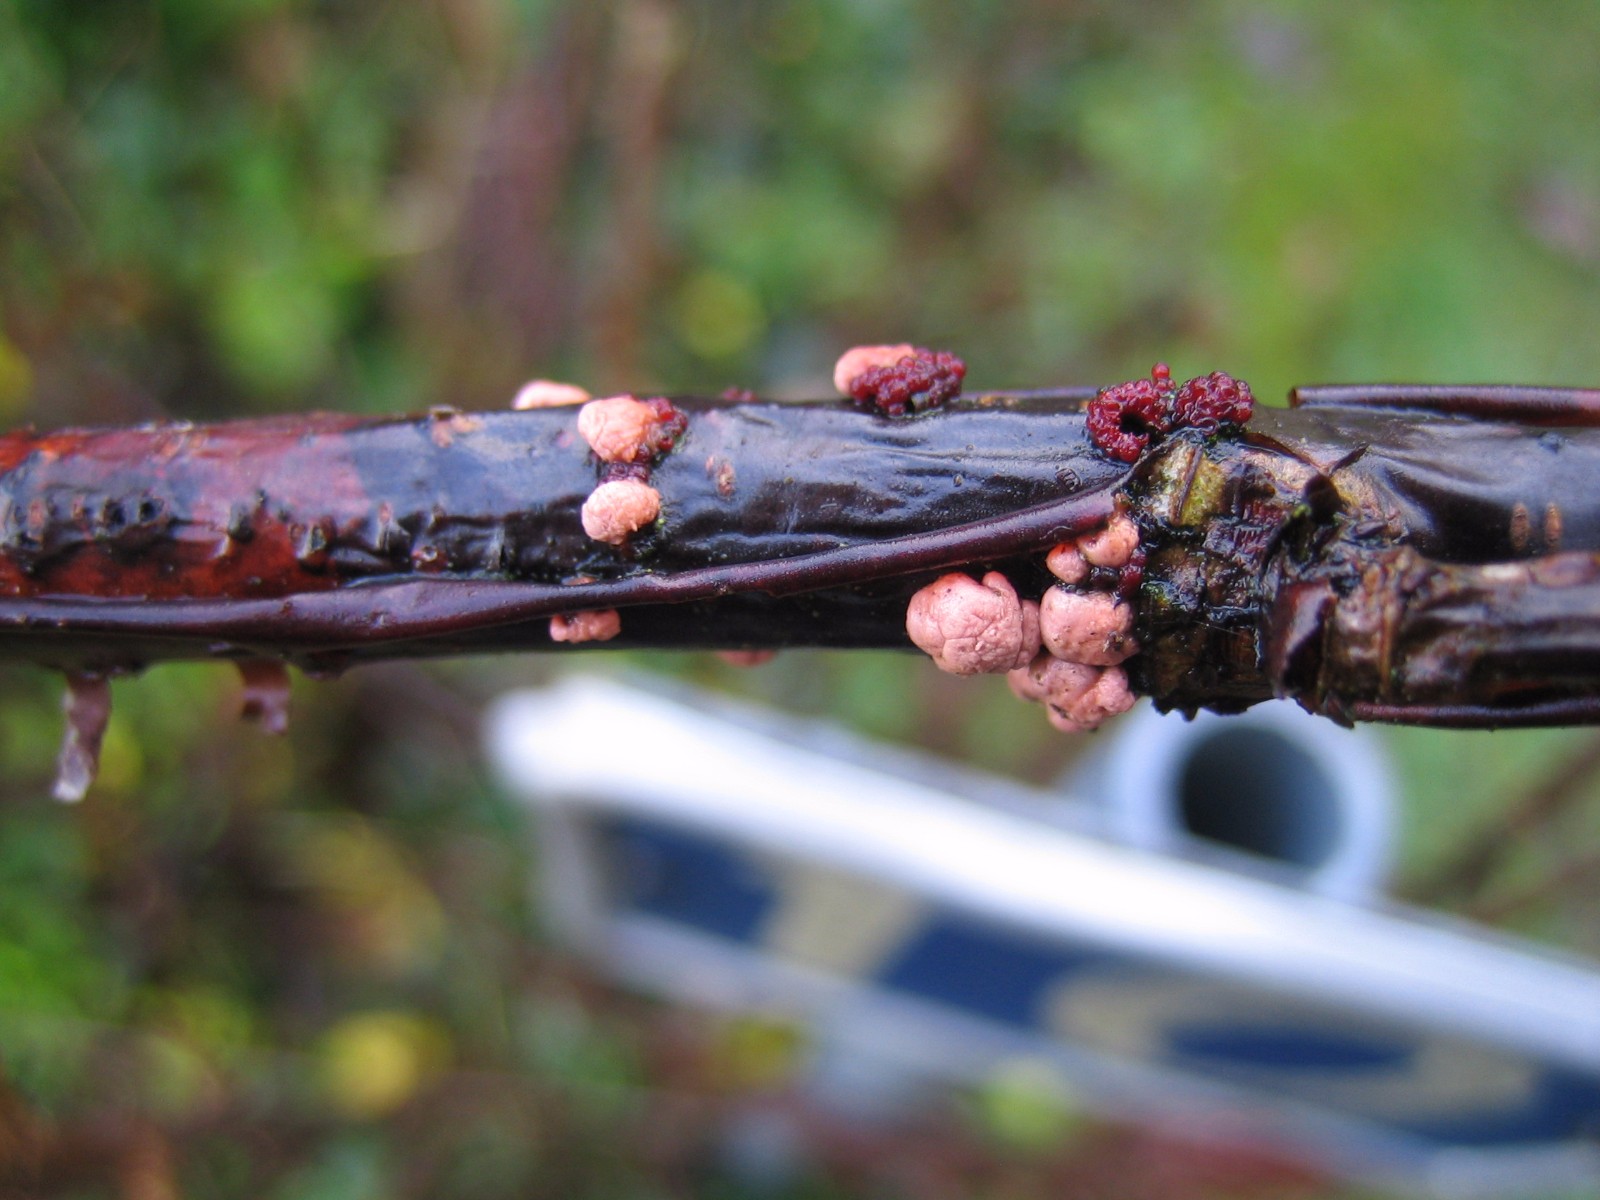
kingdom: Fungi
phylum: Ascomycota
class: Sordariomycetes
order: Hypocreales
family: Nectriaceae
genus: Nectria
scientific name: Nectria cinnabarina
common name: almindelig cinnobersvamp
